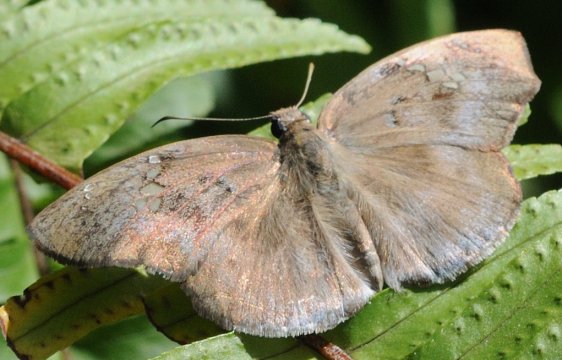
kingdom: Animalia
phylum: Arthropoda
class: Insecta
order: Lepidoptera
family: Hesperiidae
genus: Tagiades
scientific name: Tagiades flesus
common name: Clouded Flat
